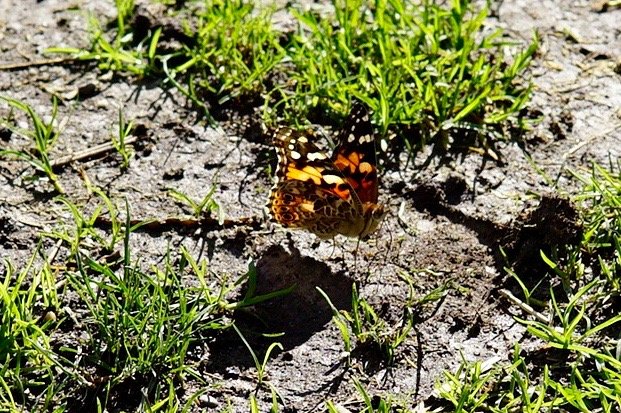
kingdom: Animalia
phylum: Arthropoda
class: Insecta
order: Lepidoptera
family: Nymphalidae
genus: Vanessa
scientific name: Vanessa cardui
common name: Painted Lady
